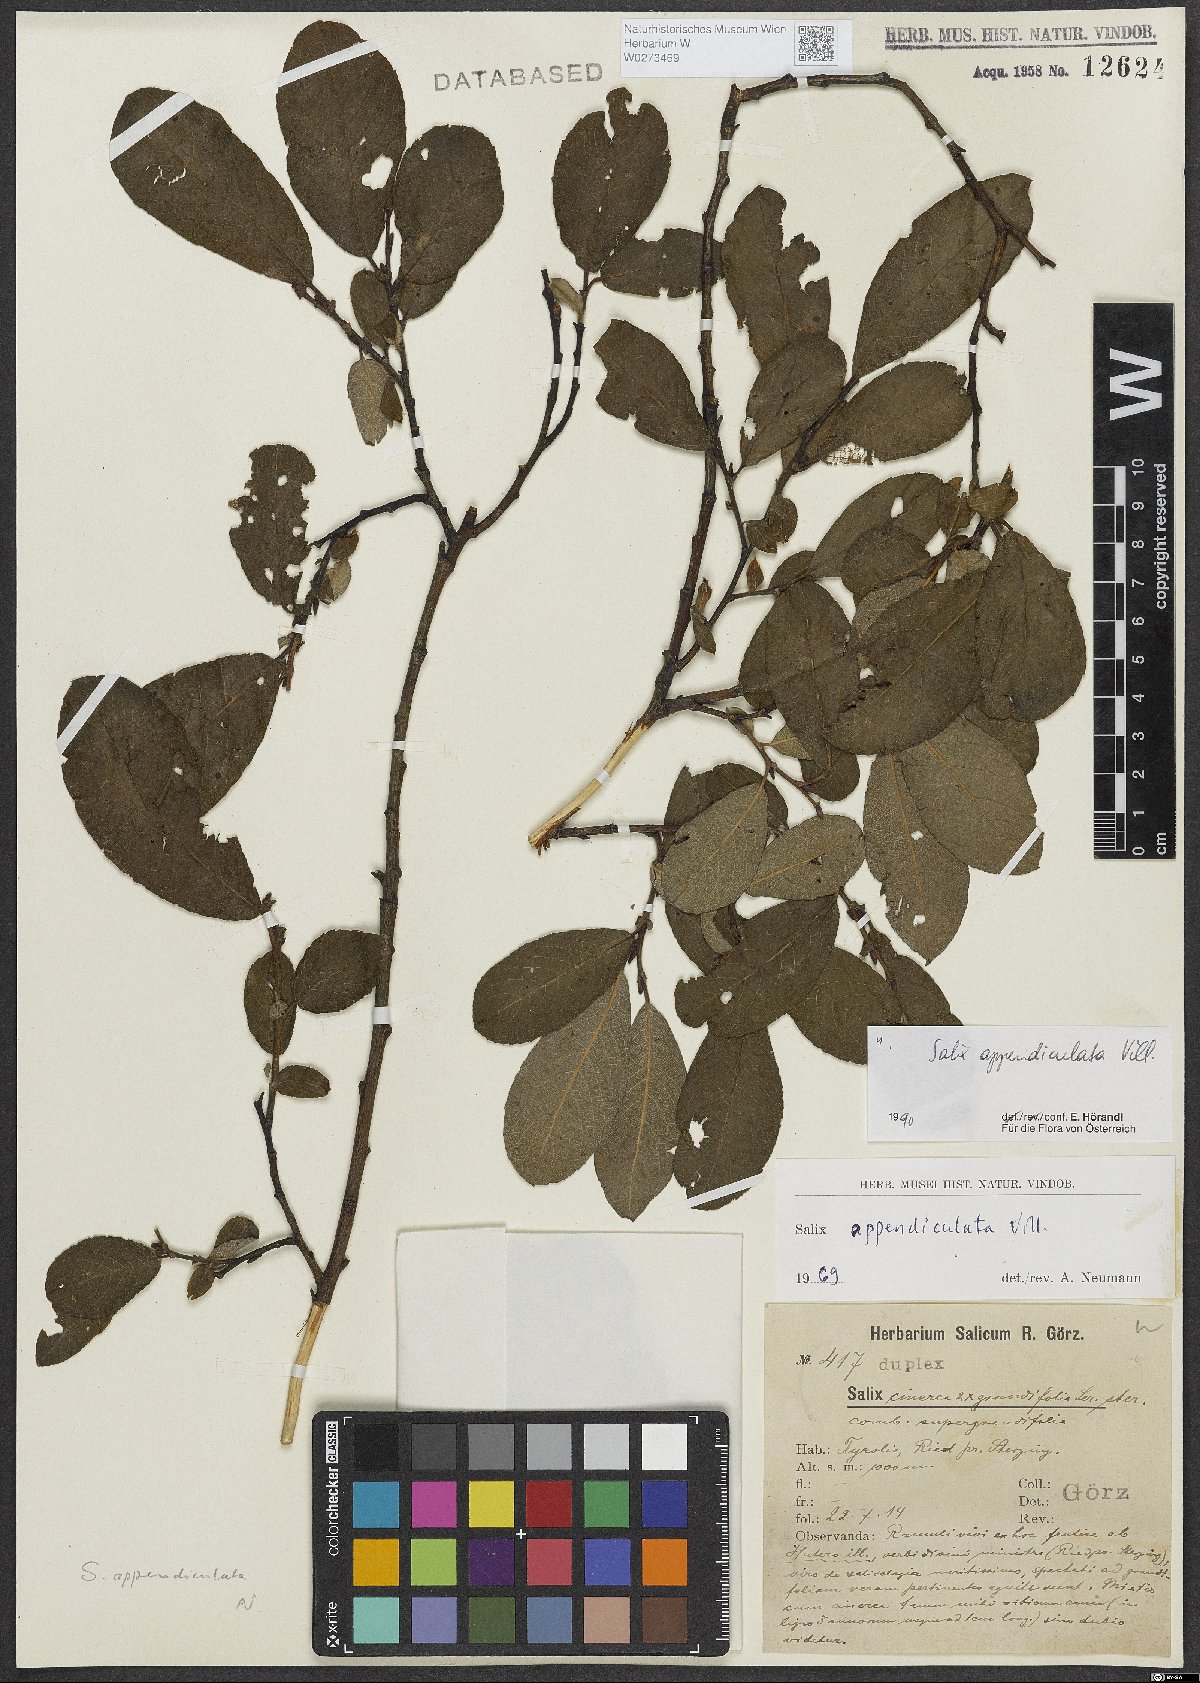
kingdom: Plantae
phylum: Tracheophyta
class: Magnoliopsida
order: Malpighiales
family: Salicaceae
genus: Salix
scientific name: Salix appendiculata
